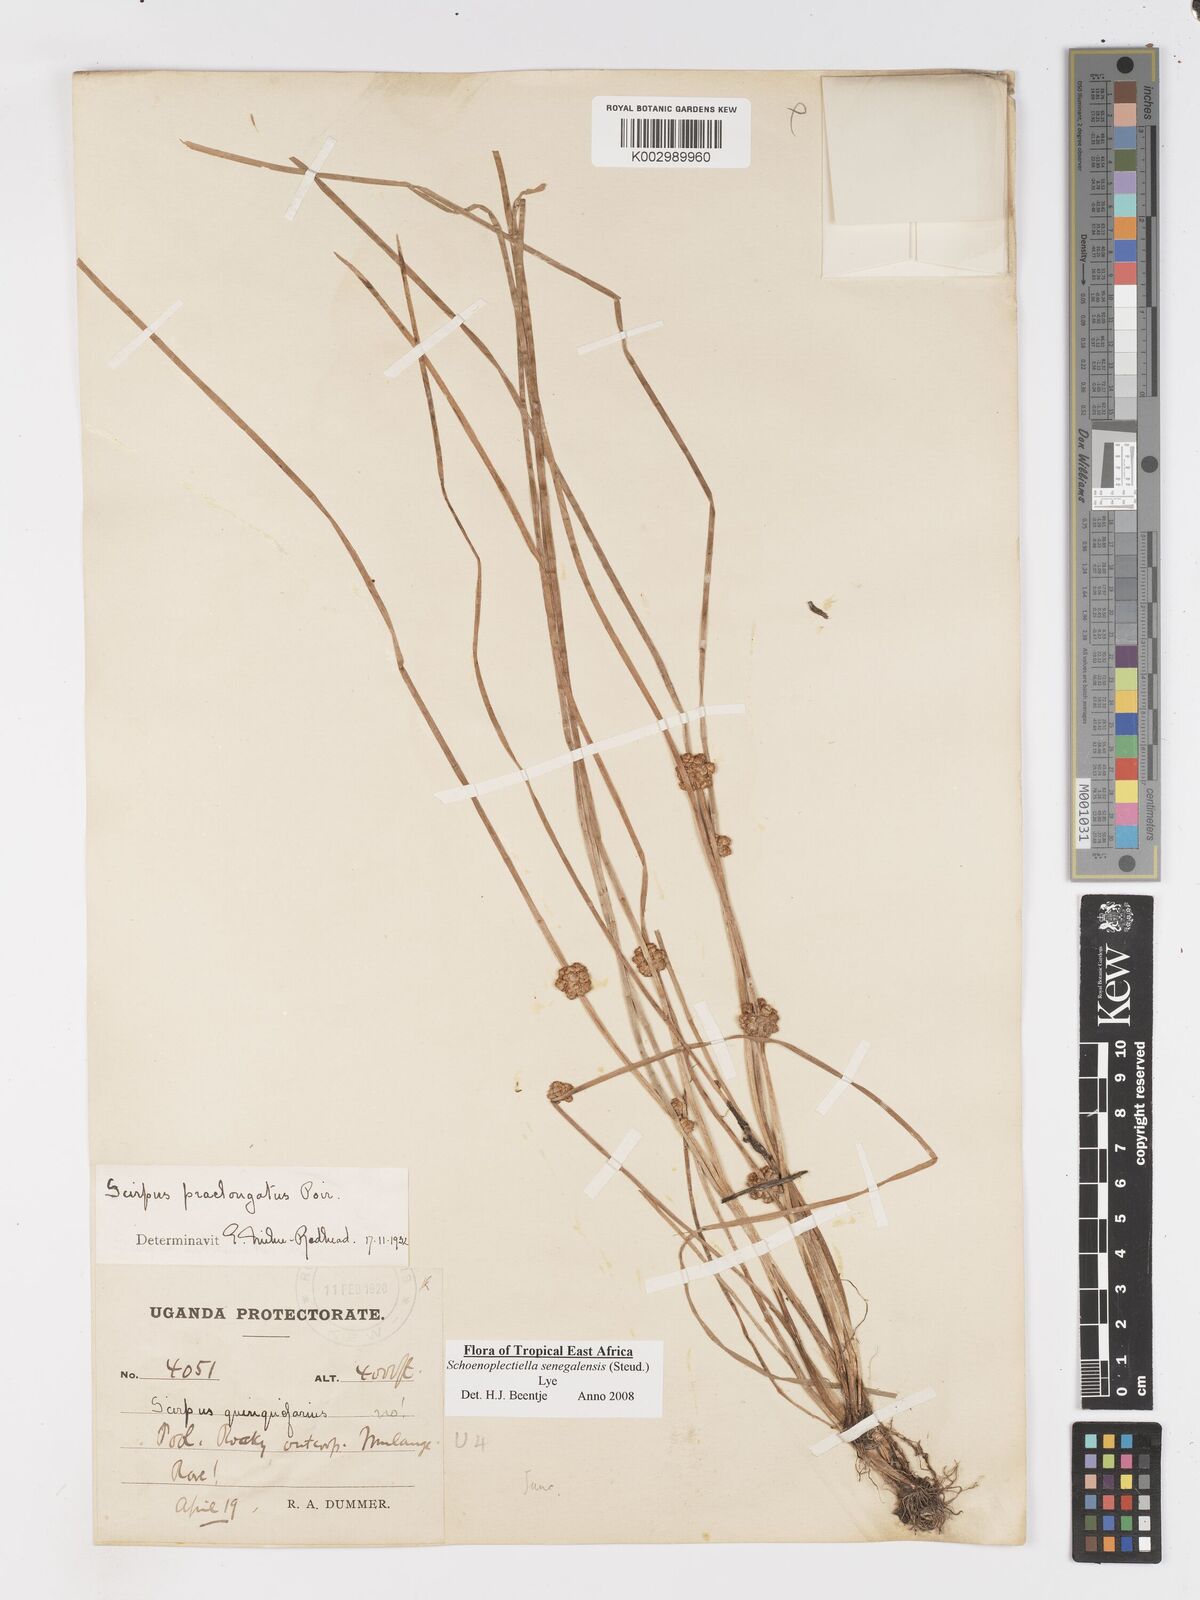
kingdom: Plantae
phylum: Tracheophyta
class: Liliopsida
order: Poales
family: Cyperaceae
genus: Schoenoplectiella
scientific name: Schoenoplectiella senegalensis
